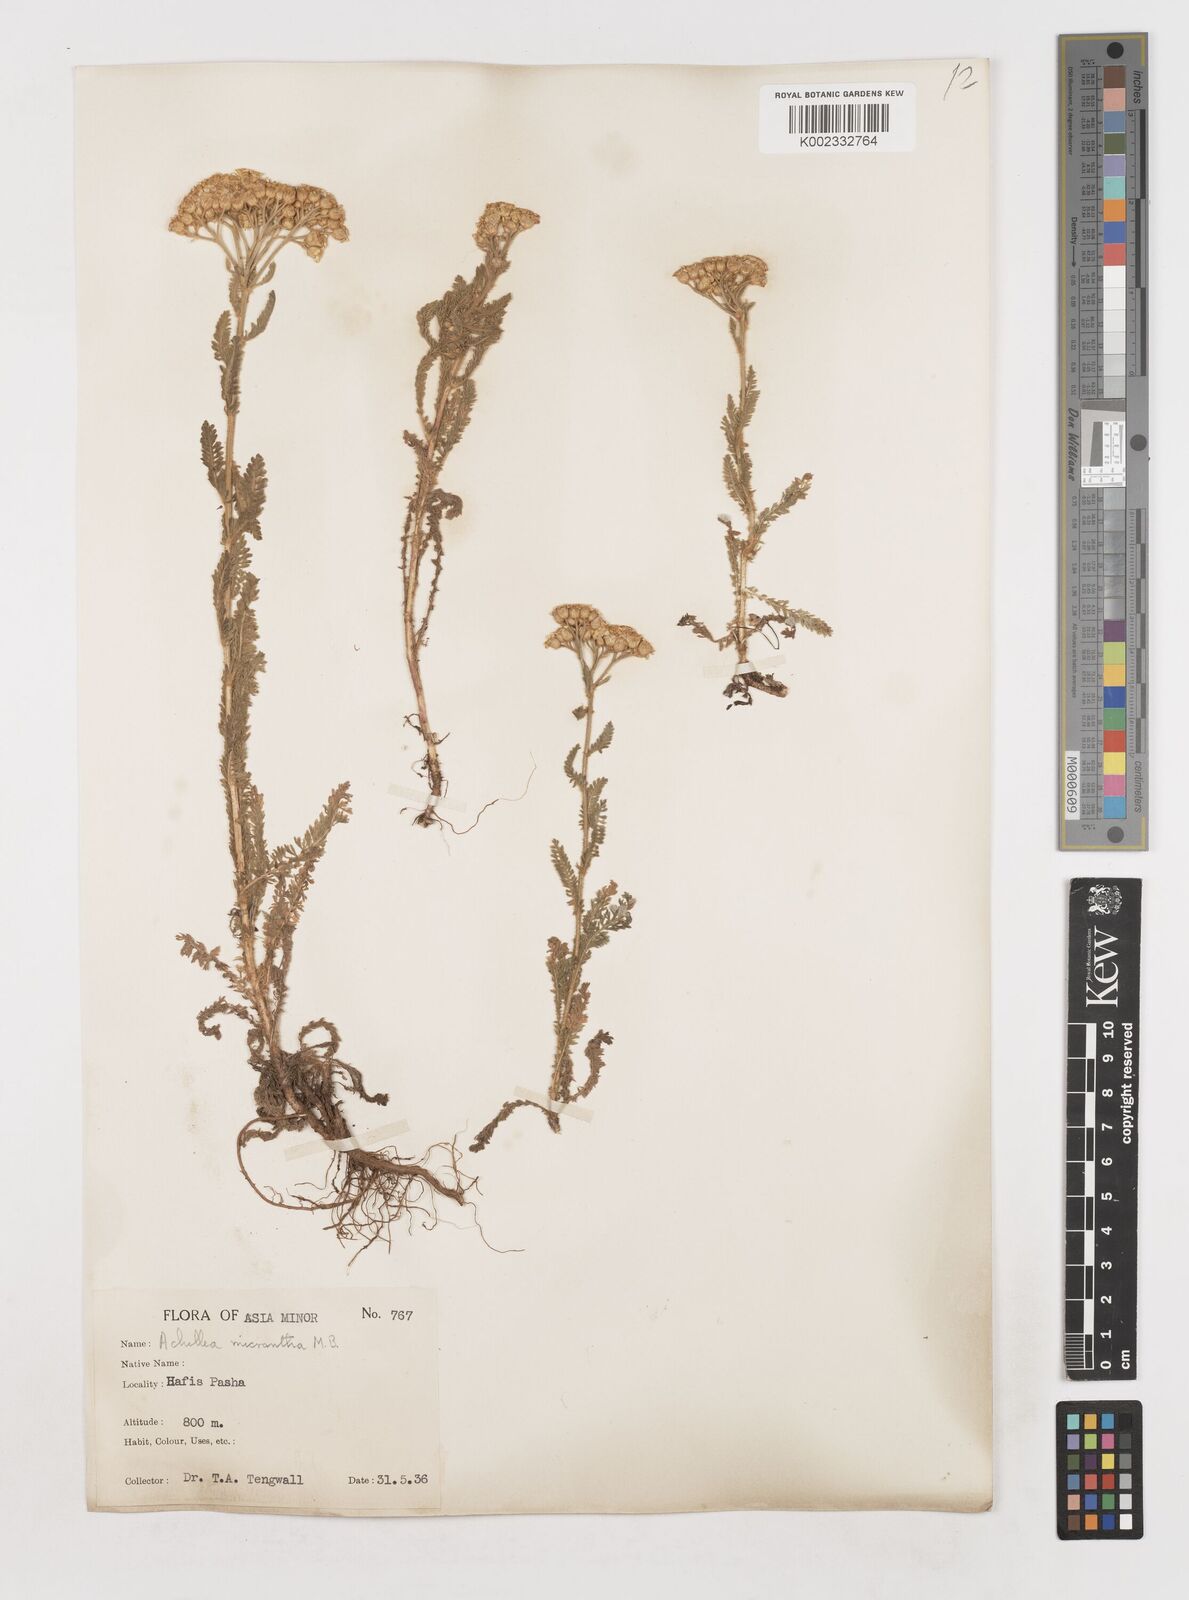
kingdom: Plantae
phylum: Tracheophyta
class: Magnoliopsida
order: Asterales
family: Asteraceae
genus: Achillea
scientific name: Achillea micrantha
